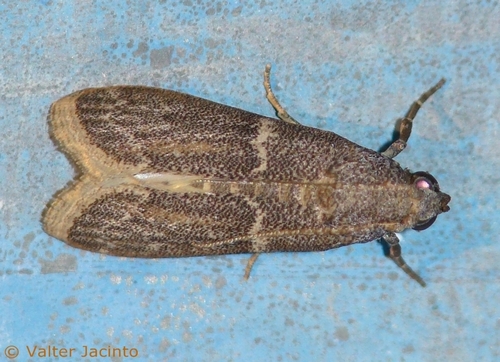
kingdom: Animalia
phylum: Arthropoda
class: Insecta
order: Lepidoptera
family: Pyralidae
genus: Cadra
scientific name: Cadra calidella
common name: Dried fruit moth
